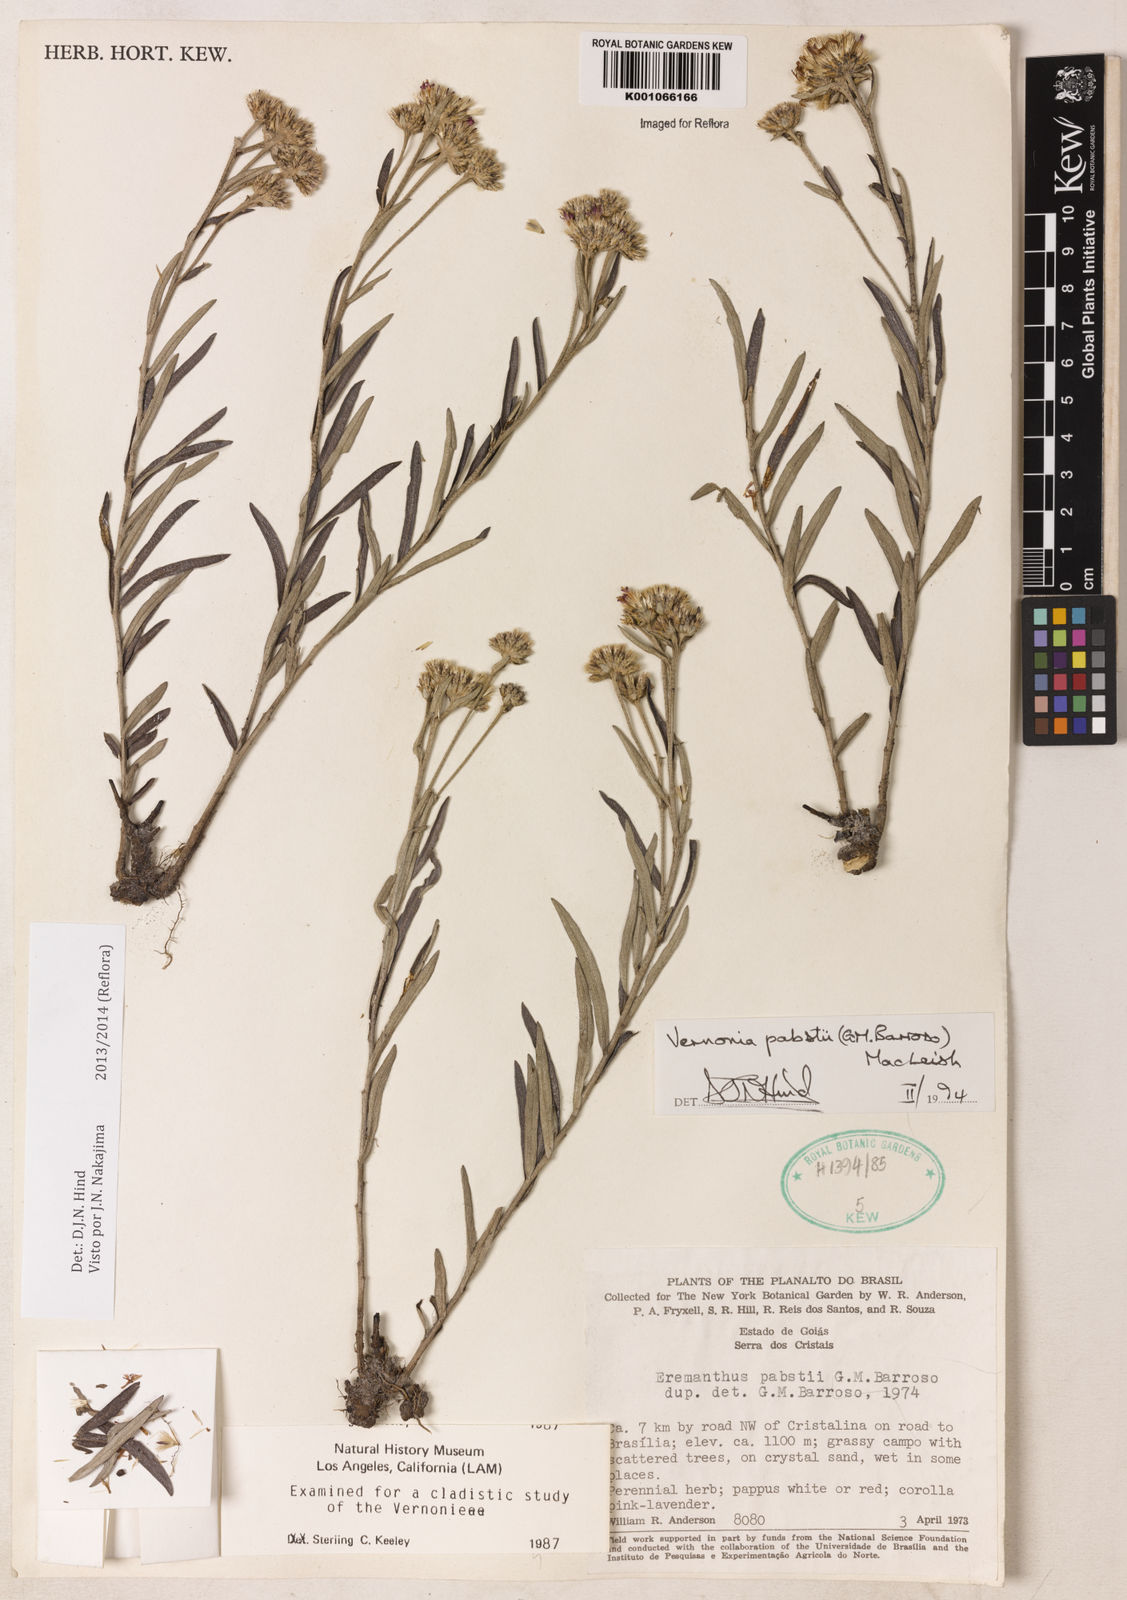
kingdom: Plantae
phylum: Tracheophyta
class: Magnoliopsida
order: Asterales
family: Asteraceae
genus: Piptolepis
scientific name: Piptolepis pabstii
